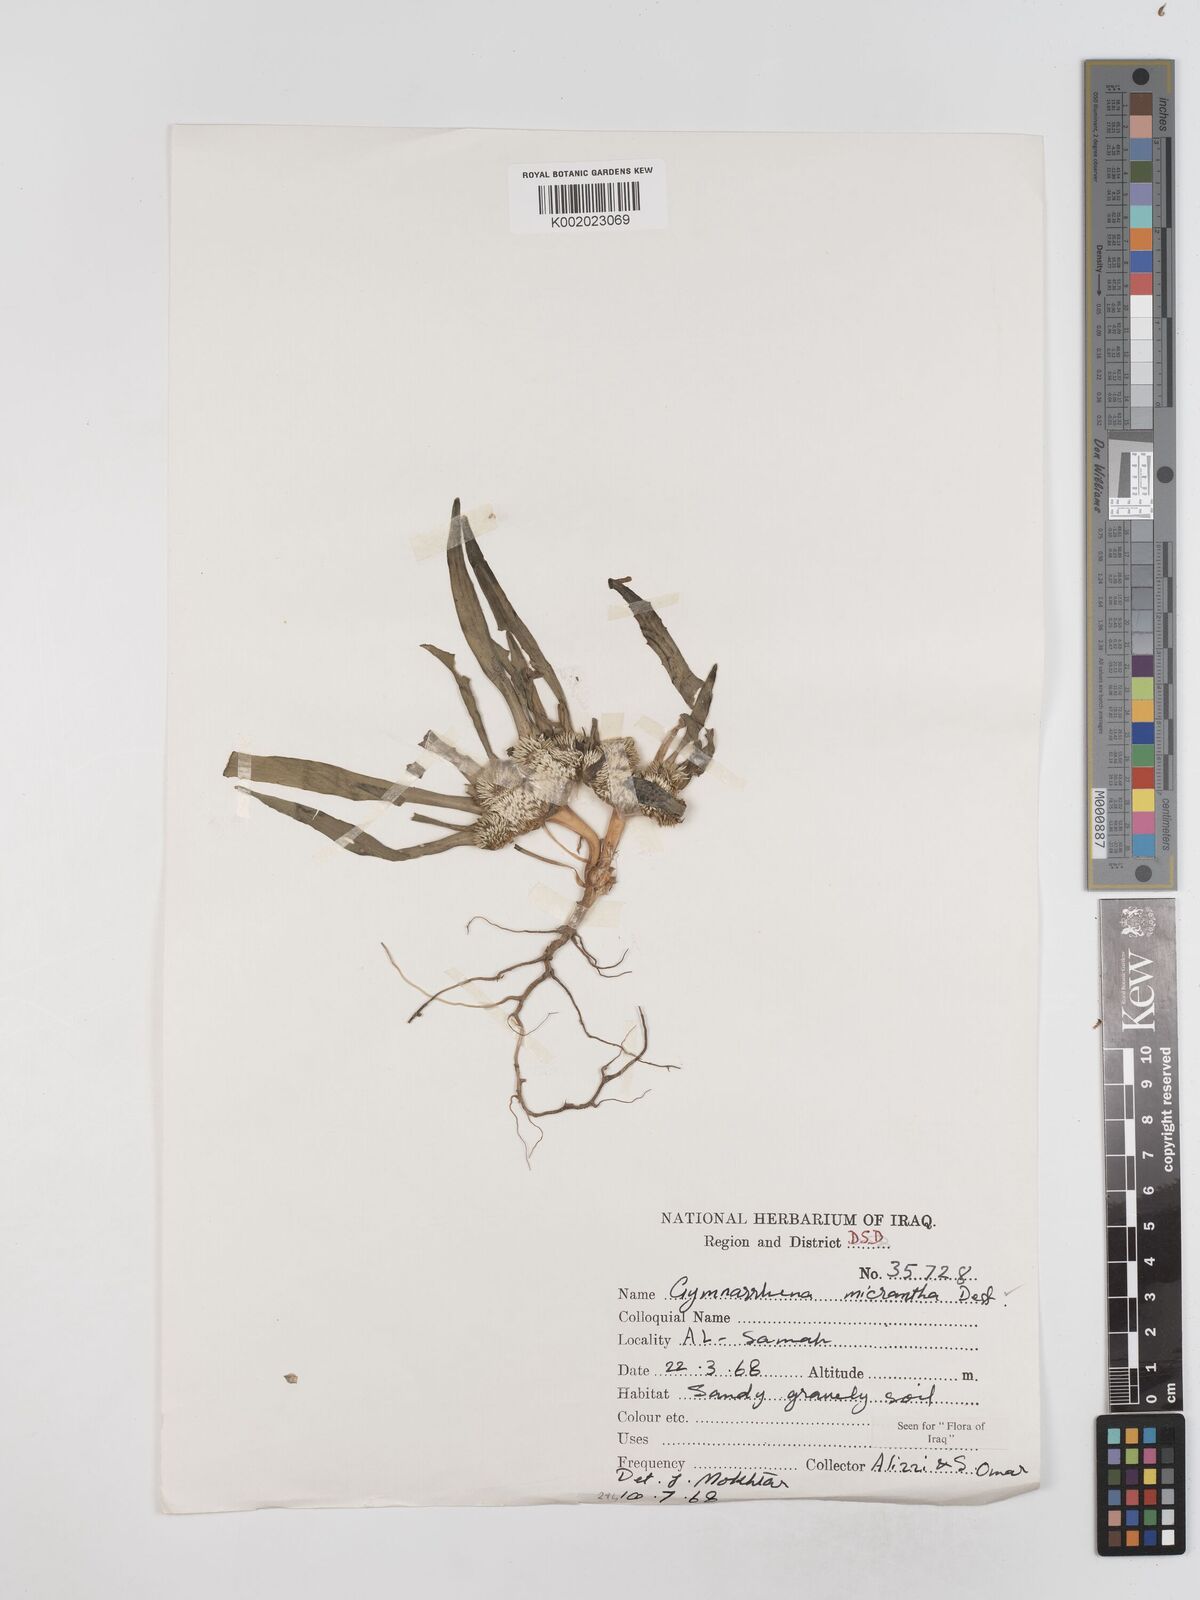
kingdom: Plantae
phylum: Tracheophyta
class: Magnoliopsida
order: Asterales
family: Asteraceae
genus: Gymnarrhena
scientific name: Gymnarrhena micrantha
